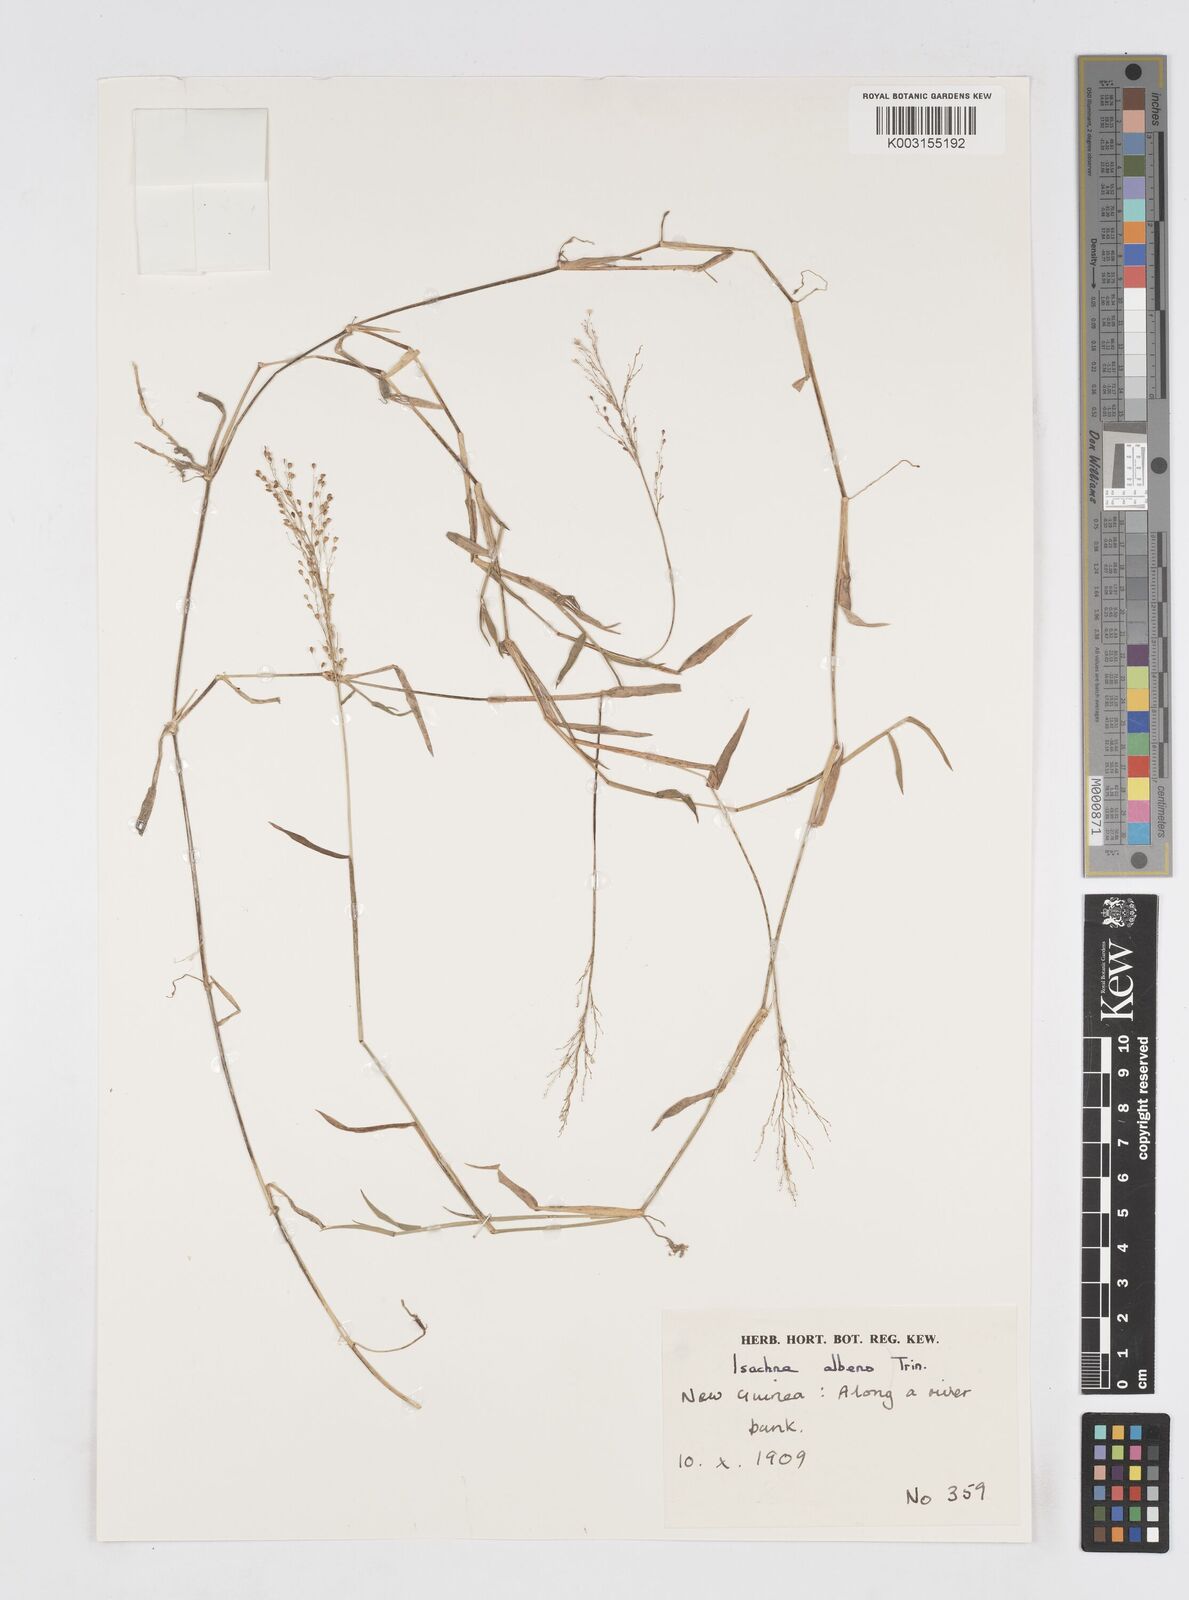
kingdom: Plantae
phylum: Tracheophyta
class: Liliopsida
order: Poales
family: Poaceae
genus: Isachne
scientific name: Isachne albens
